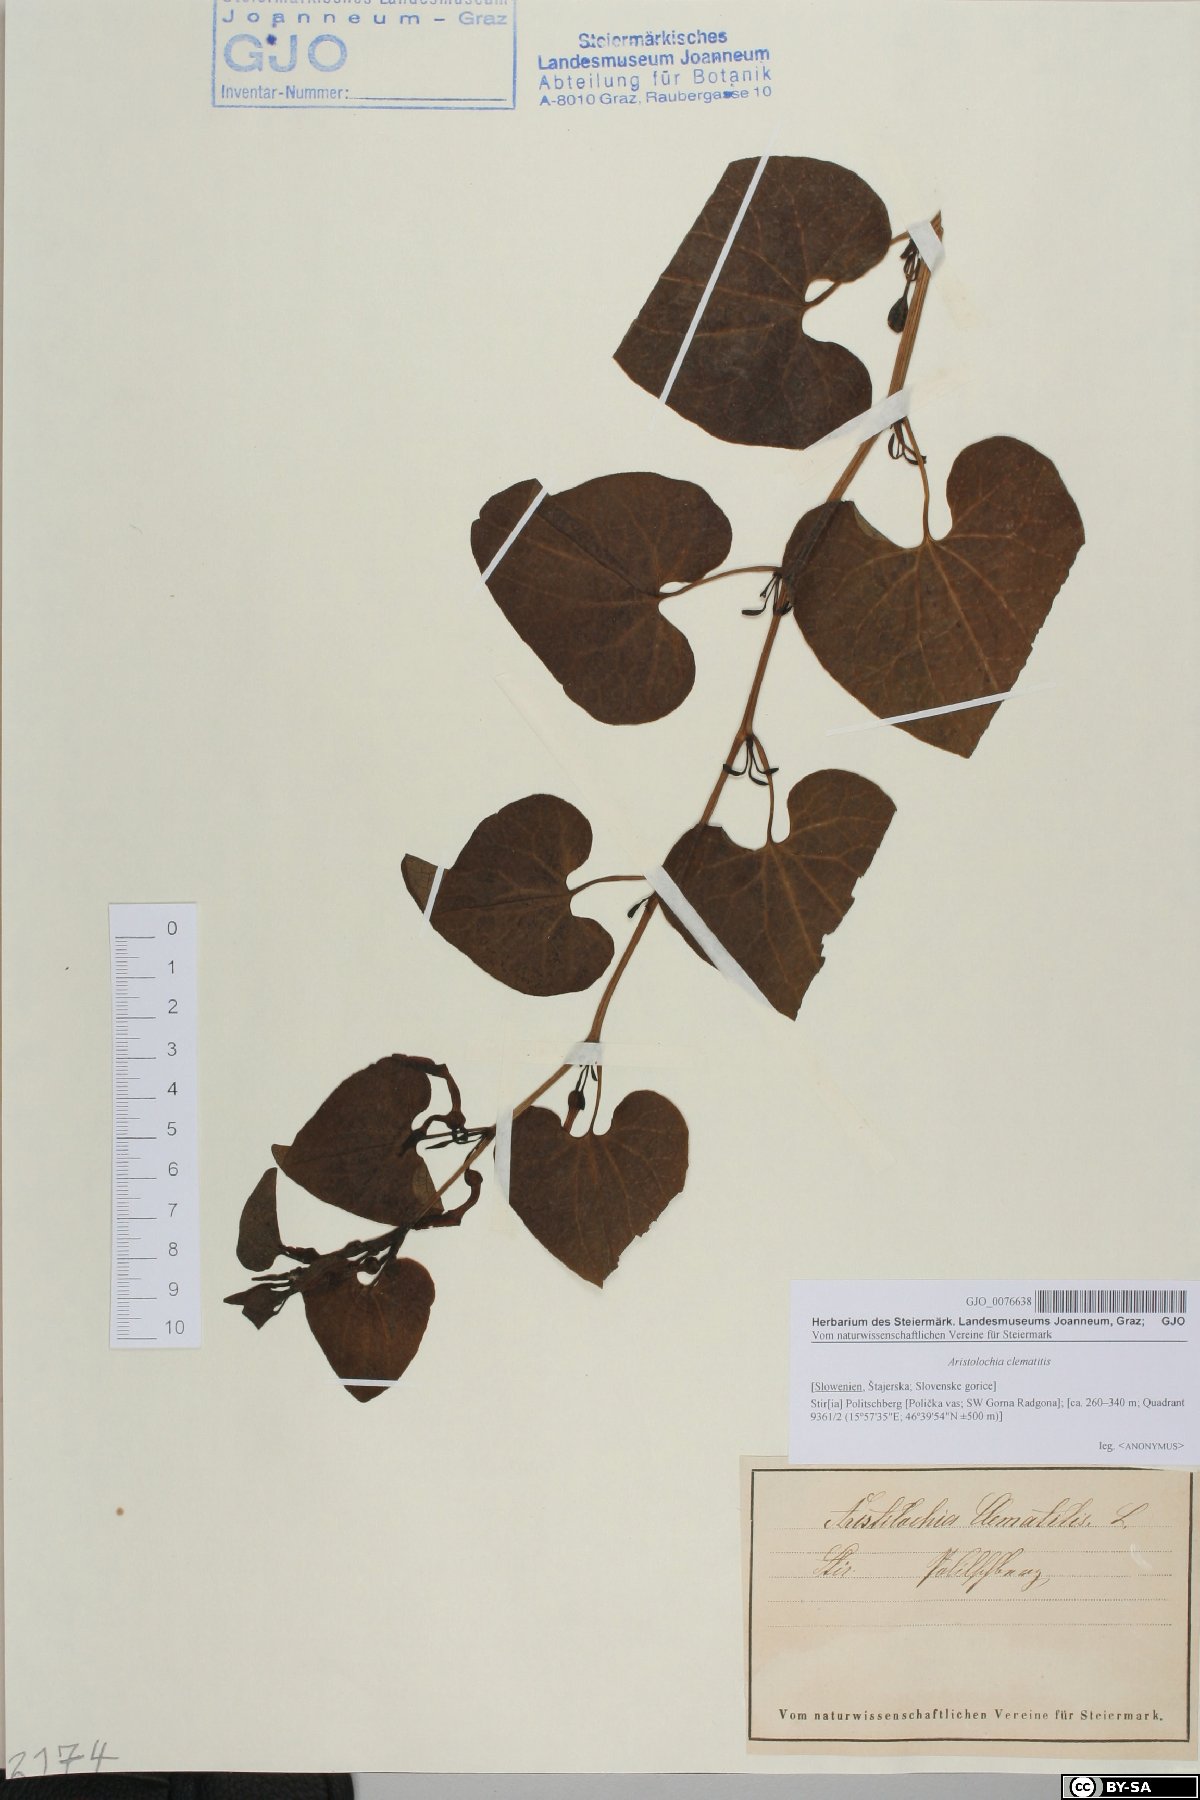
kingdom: Plantae
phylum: Tracheophyta
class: Magnoliopsida
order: Piperales
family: Aristolochiaceae
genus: Aristolochia
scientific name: Aristolochia clematitis
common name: Birthwort
